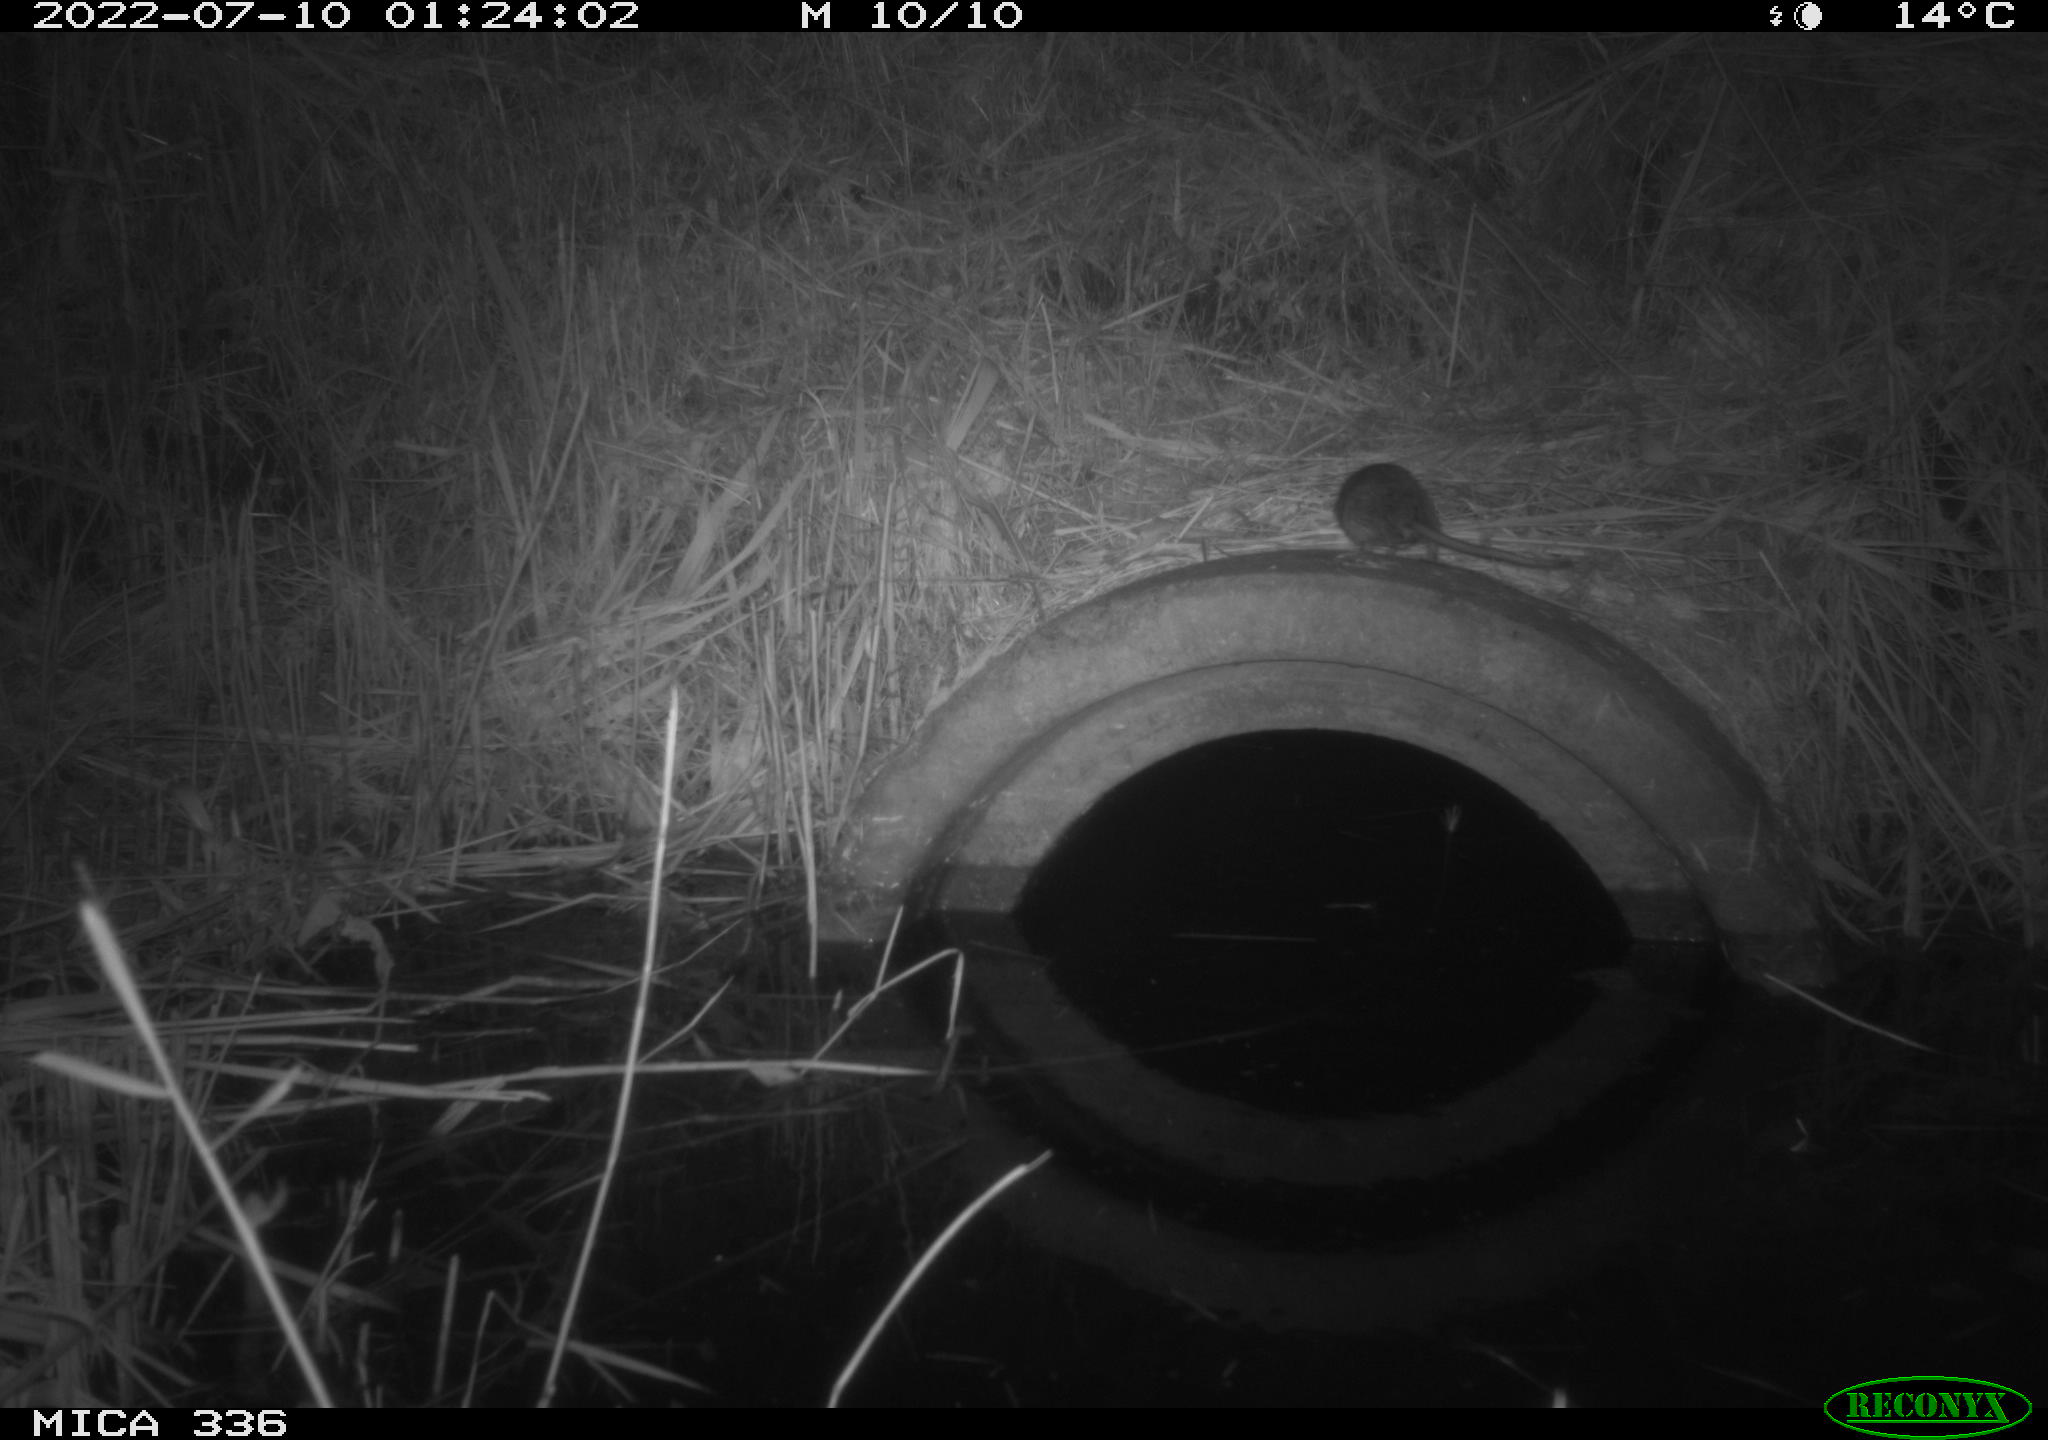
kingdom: Animalia
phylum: Chordata
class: Mammalia
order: Rodentia
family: Muridae
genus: Rattus
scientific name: Rattus norvegicus
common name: Brown rat
